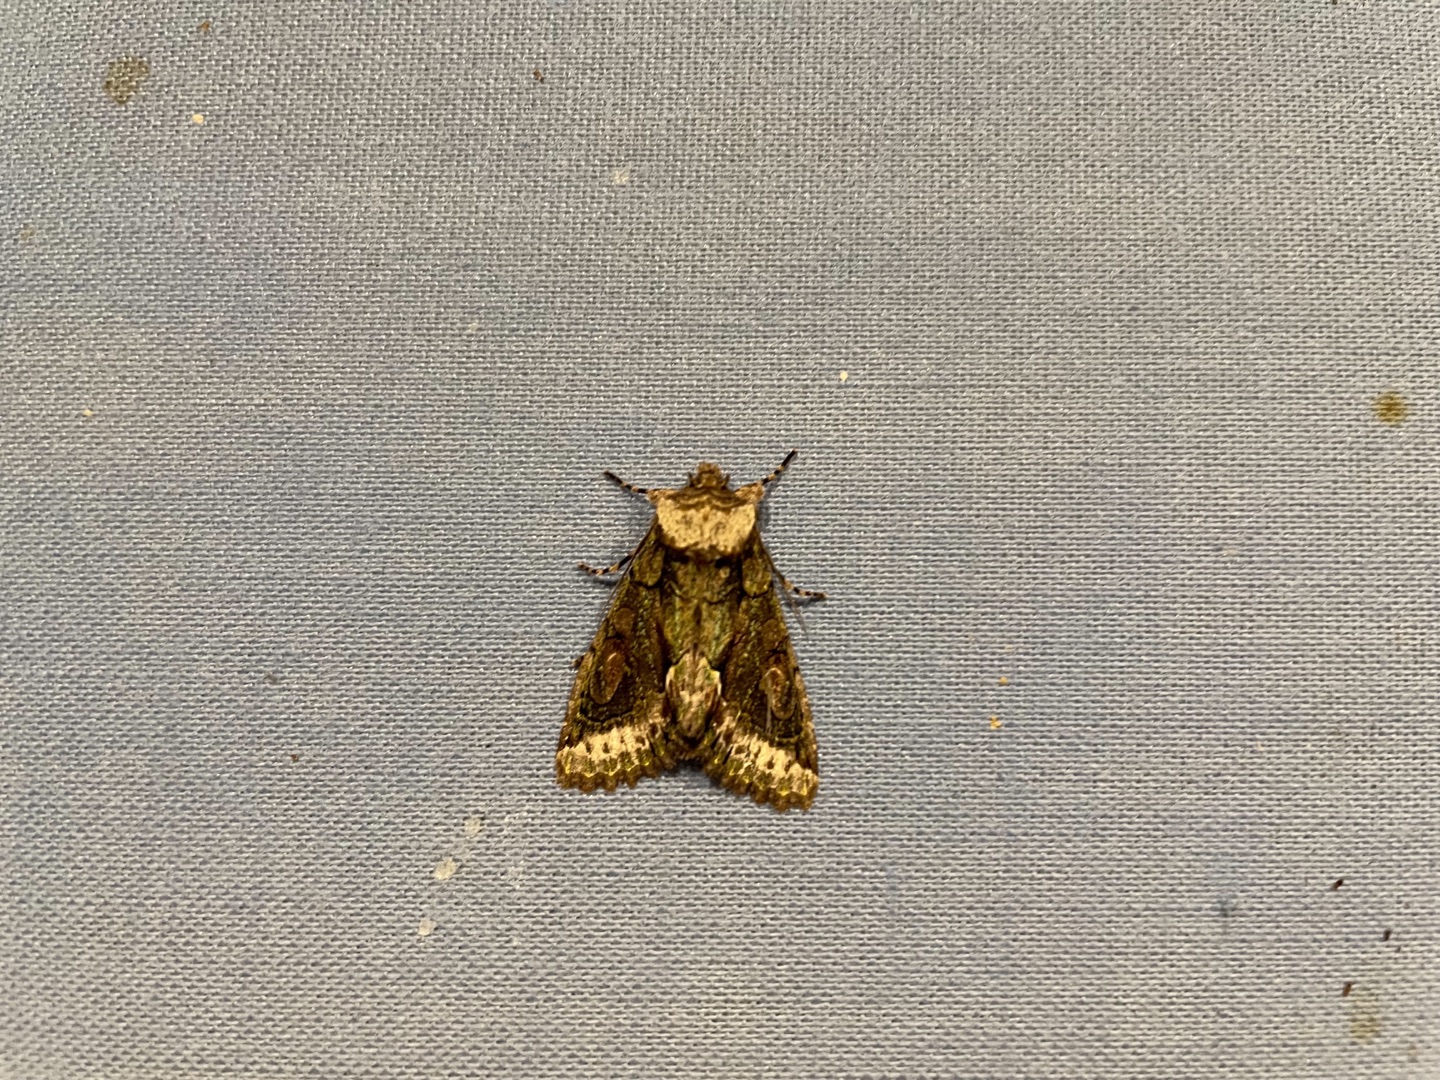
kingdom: Animalia
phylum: Arthropoda
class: Insecta
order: Lepidoptera
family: Noctuidae
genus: Allophyes
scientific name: Allophyes oxyacanthae
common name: Tjørneugle
